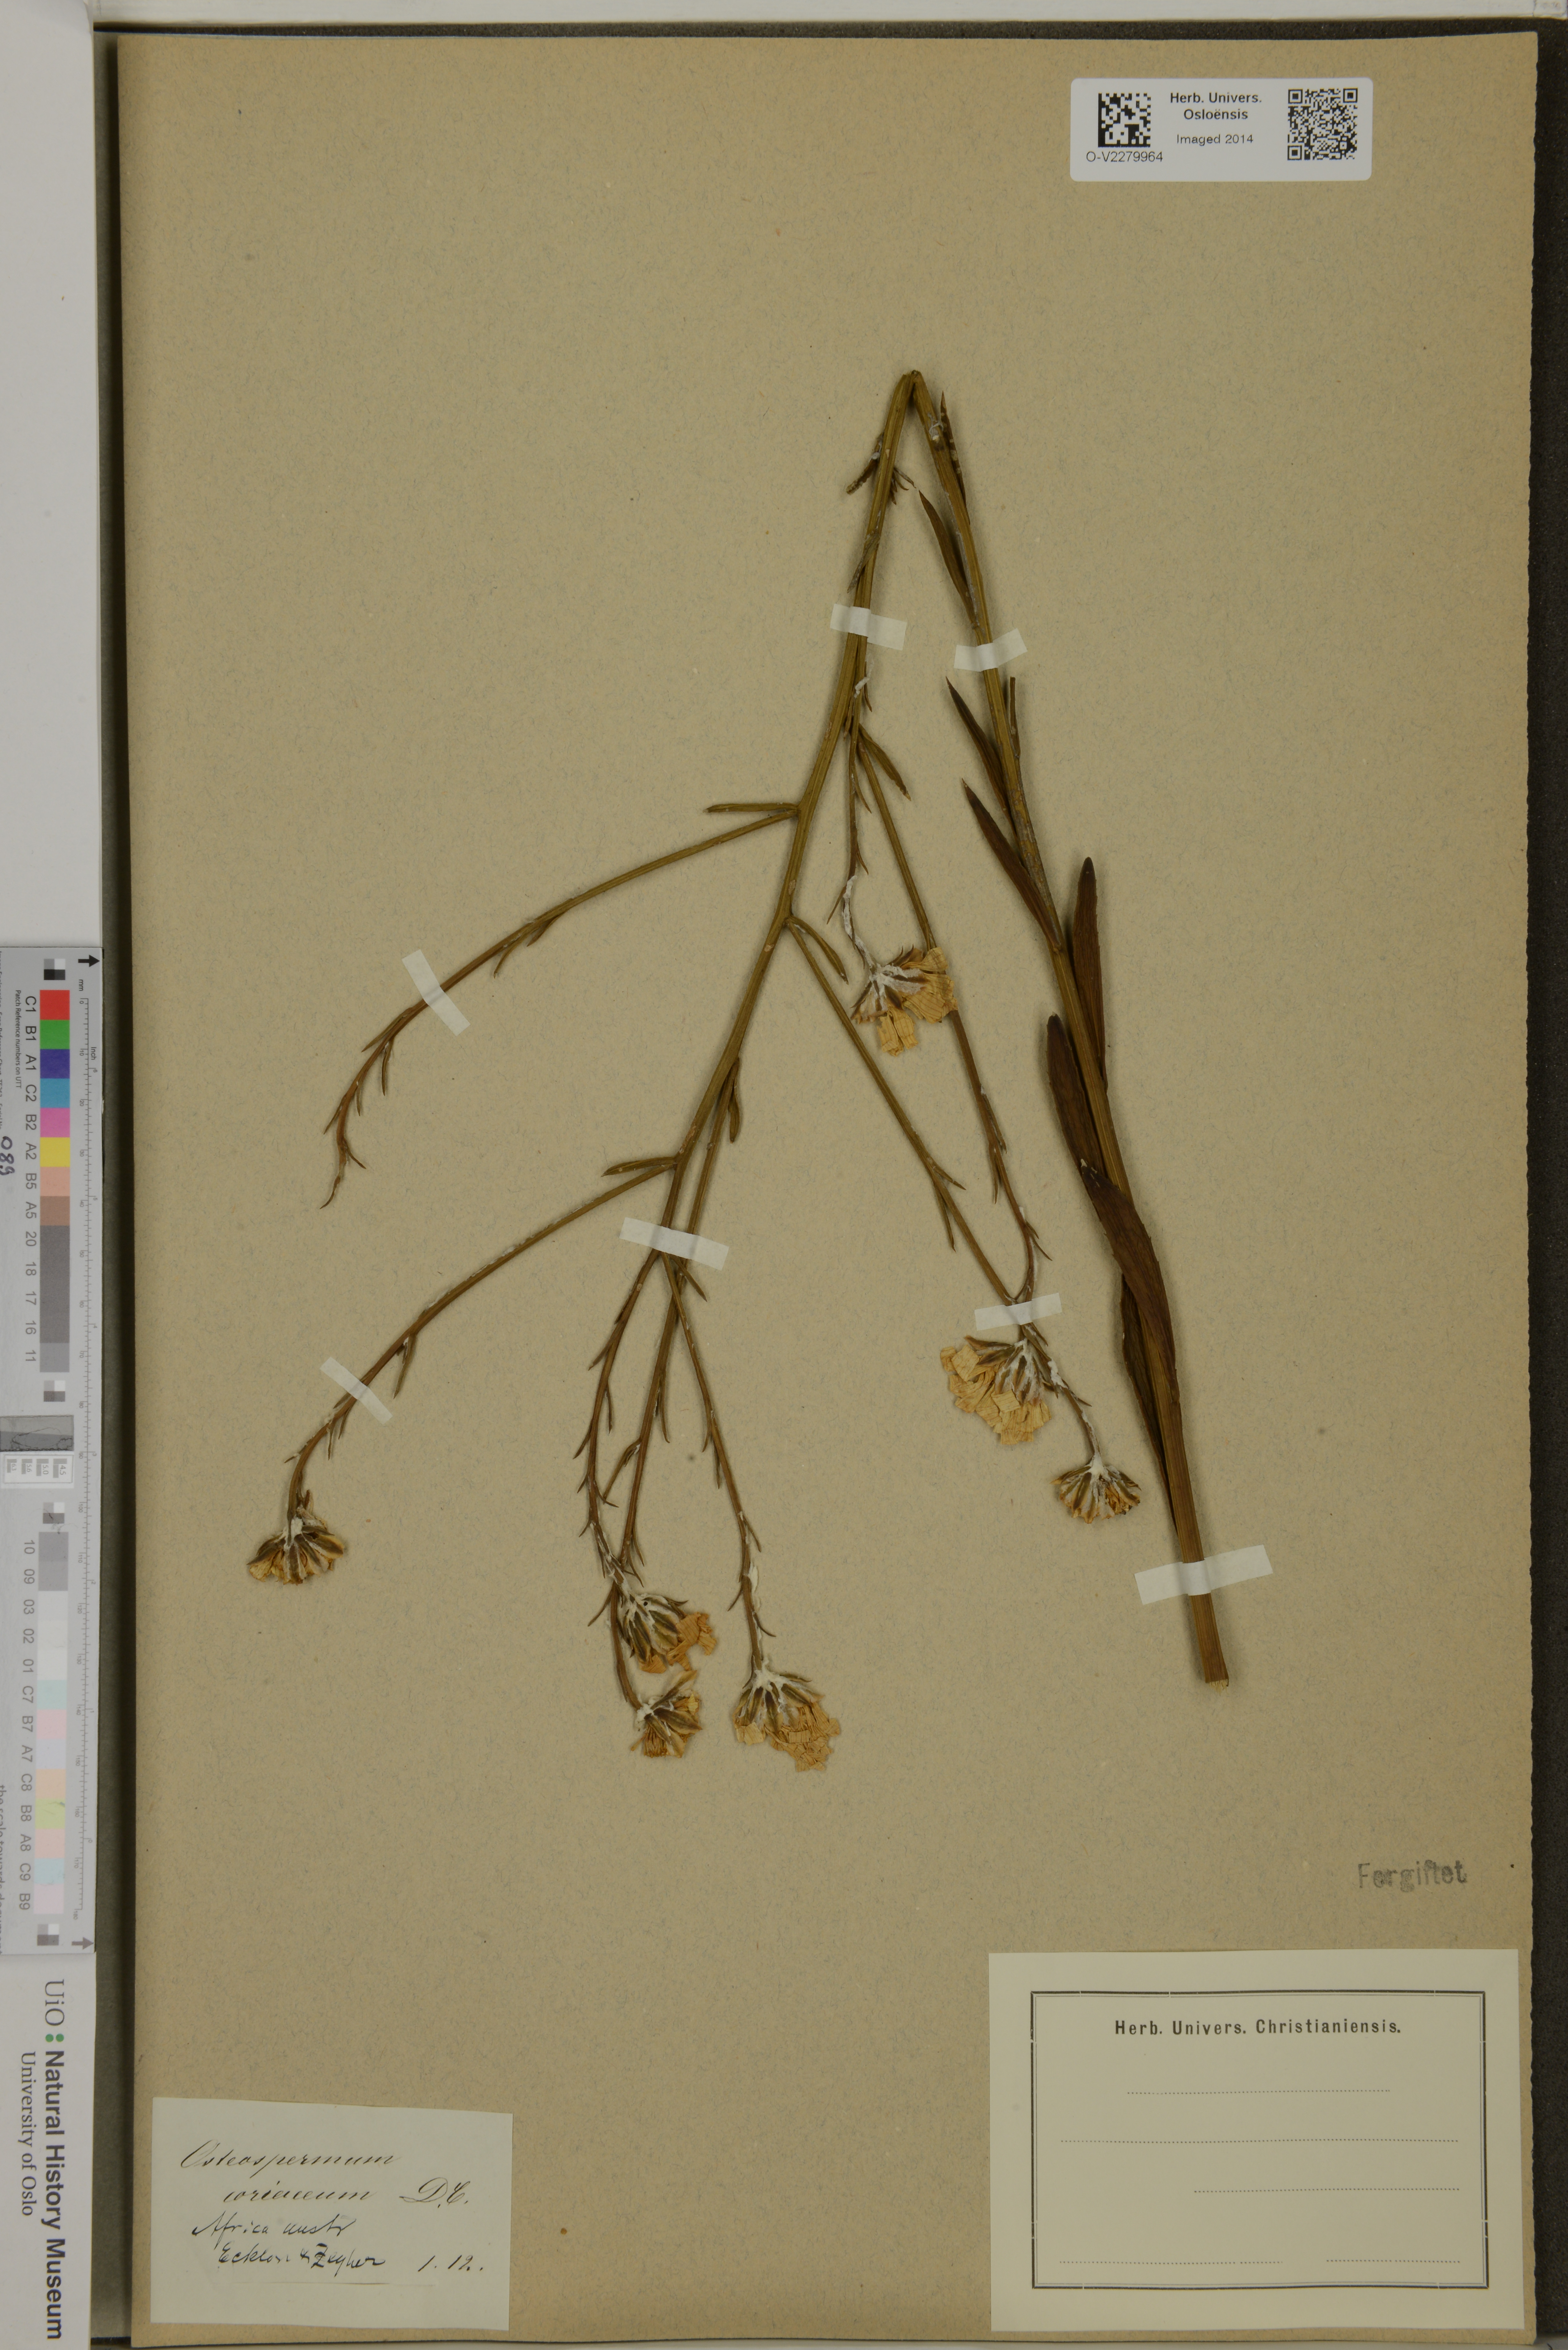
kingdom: Plantae
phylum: Tracheophyta
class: Magnoliopsida
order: Asterales
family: Asteraceae
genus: Osteospermum
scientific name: Osteospermum junceum
